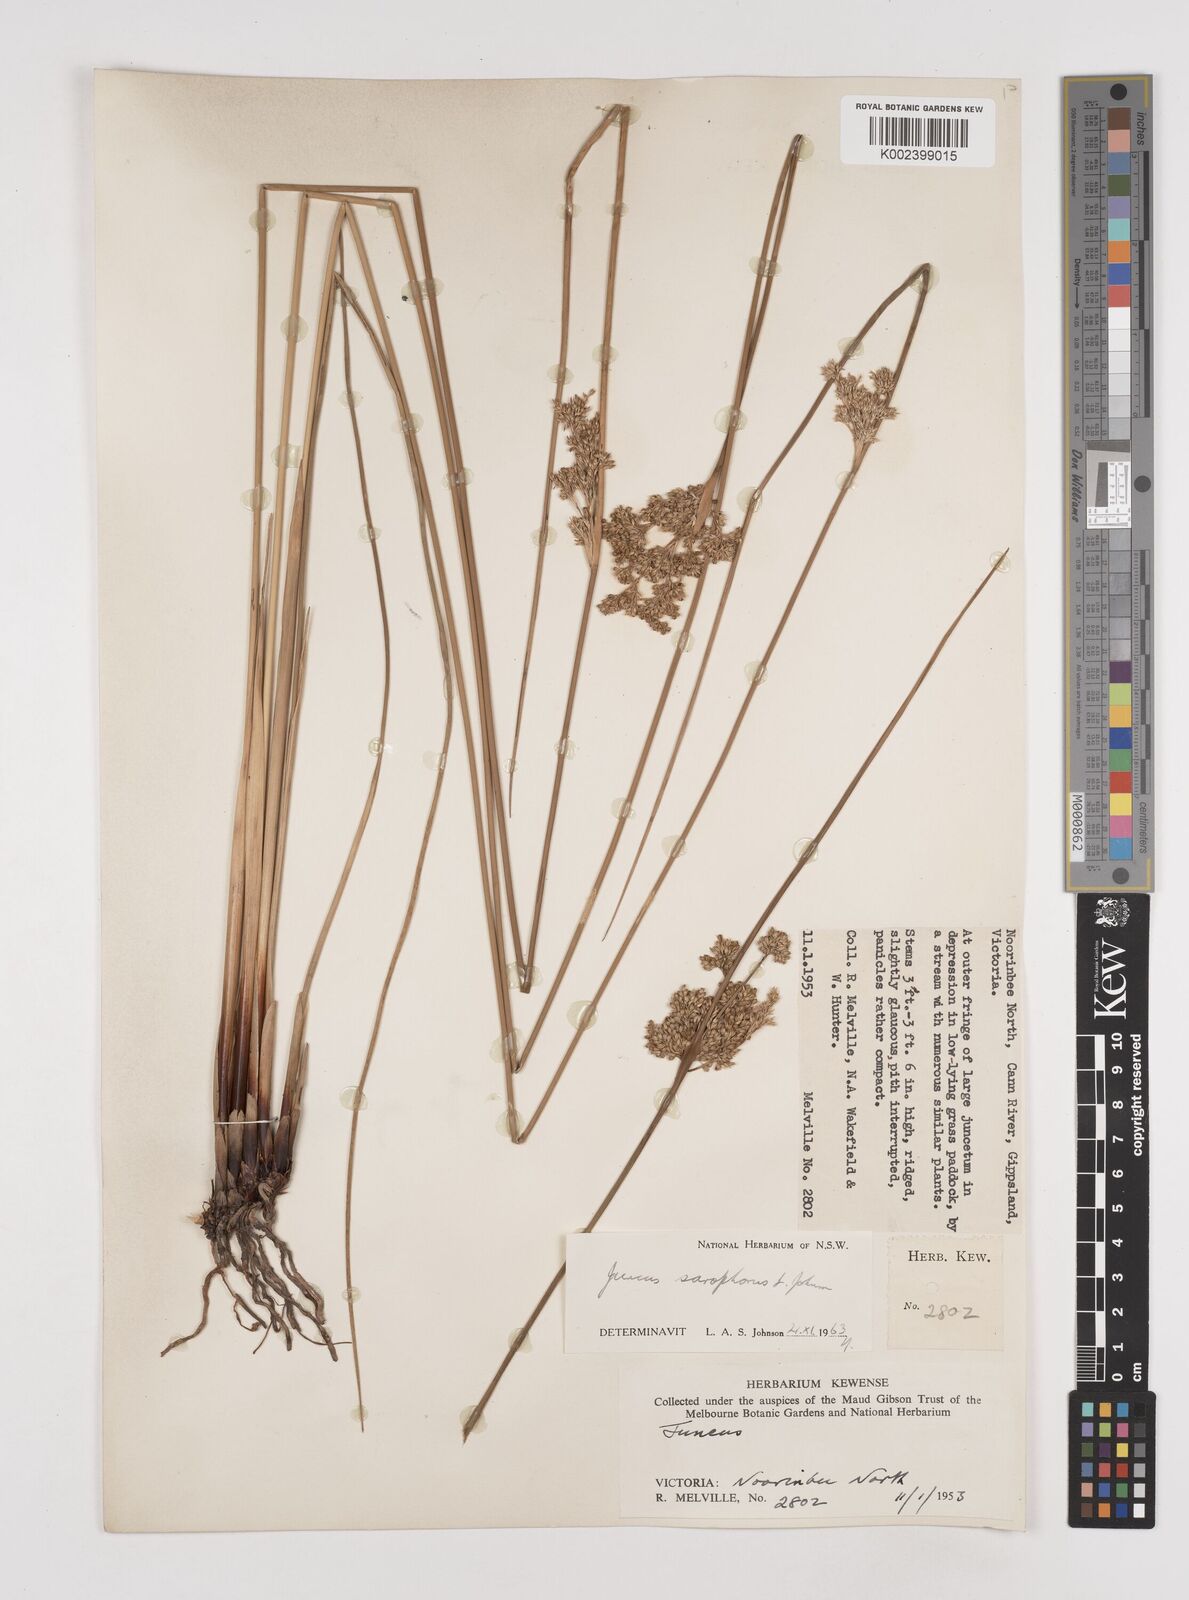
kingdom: Plantae
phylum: Tracheophyta
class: Liliopsida
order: Poales
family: Juncaceae
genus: Juncus
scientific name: Juncus sarophorus
